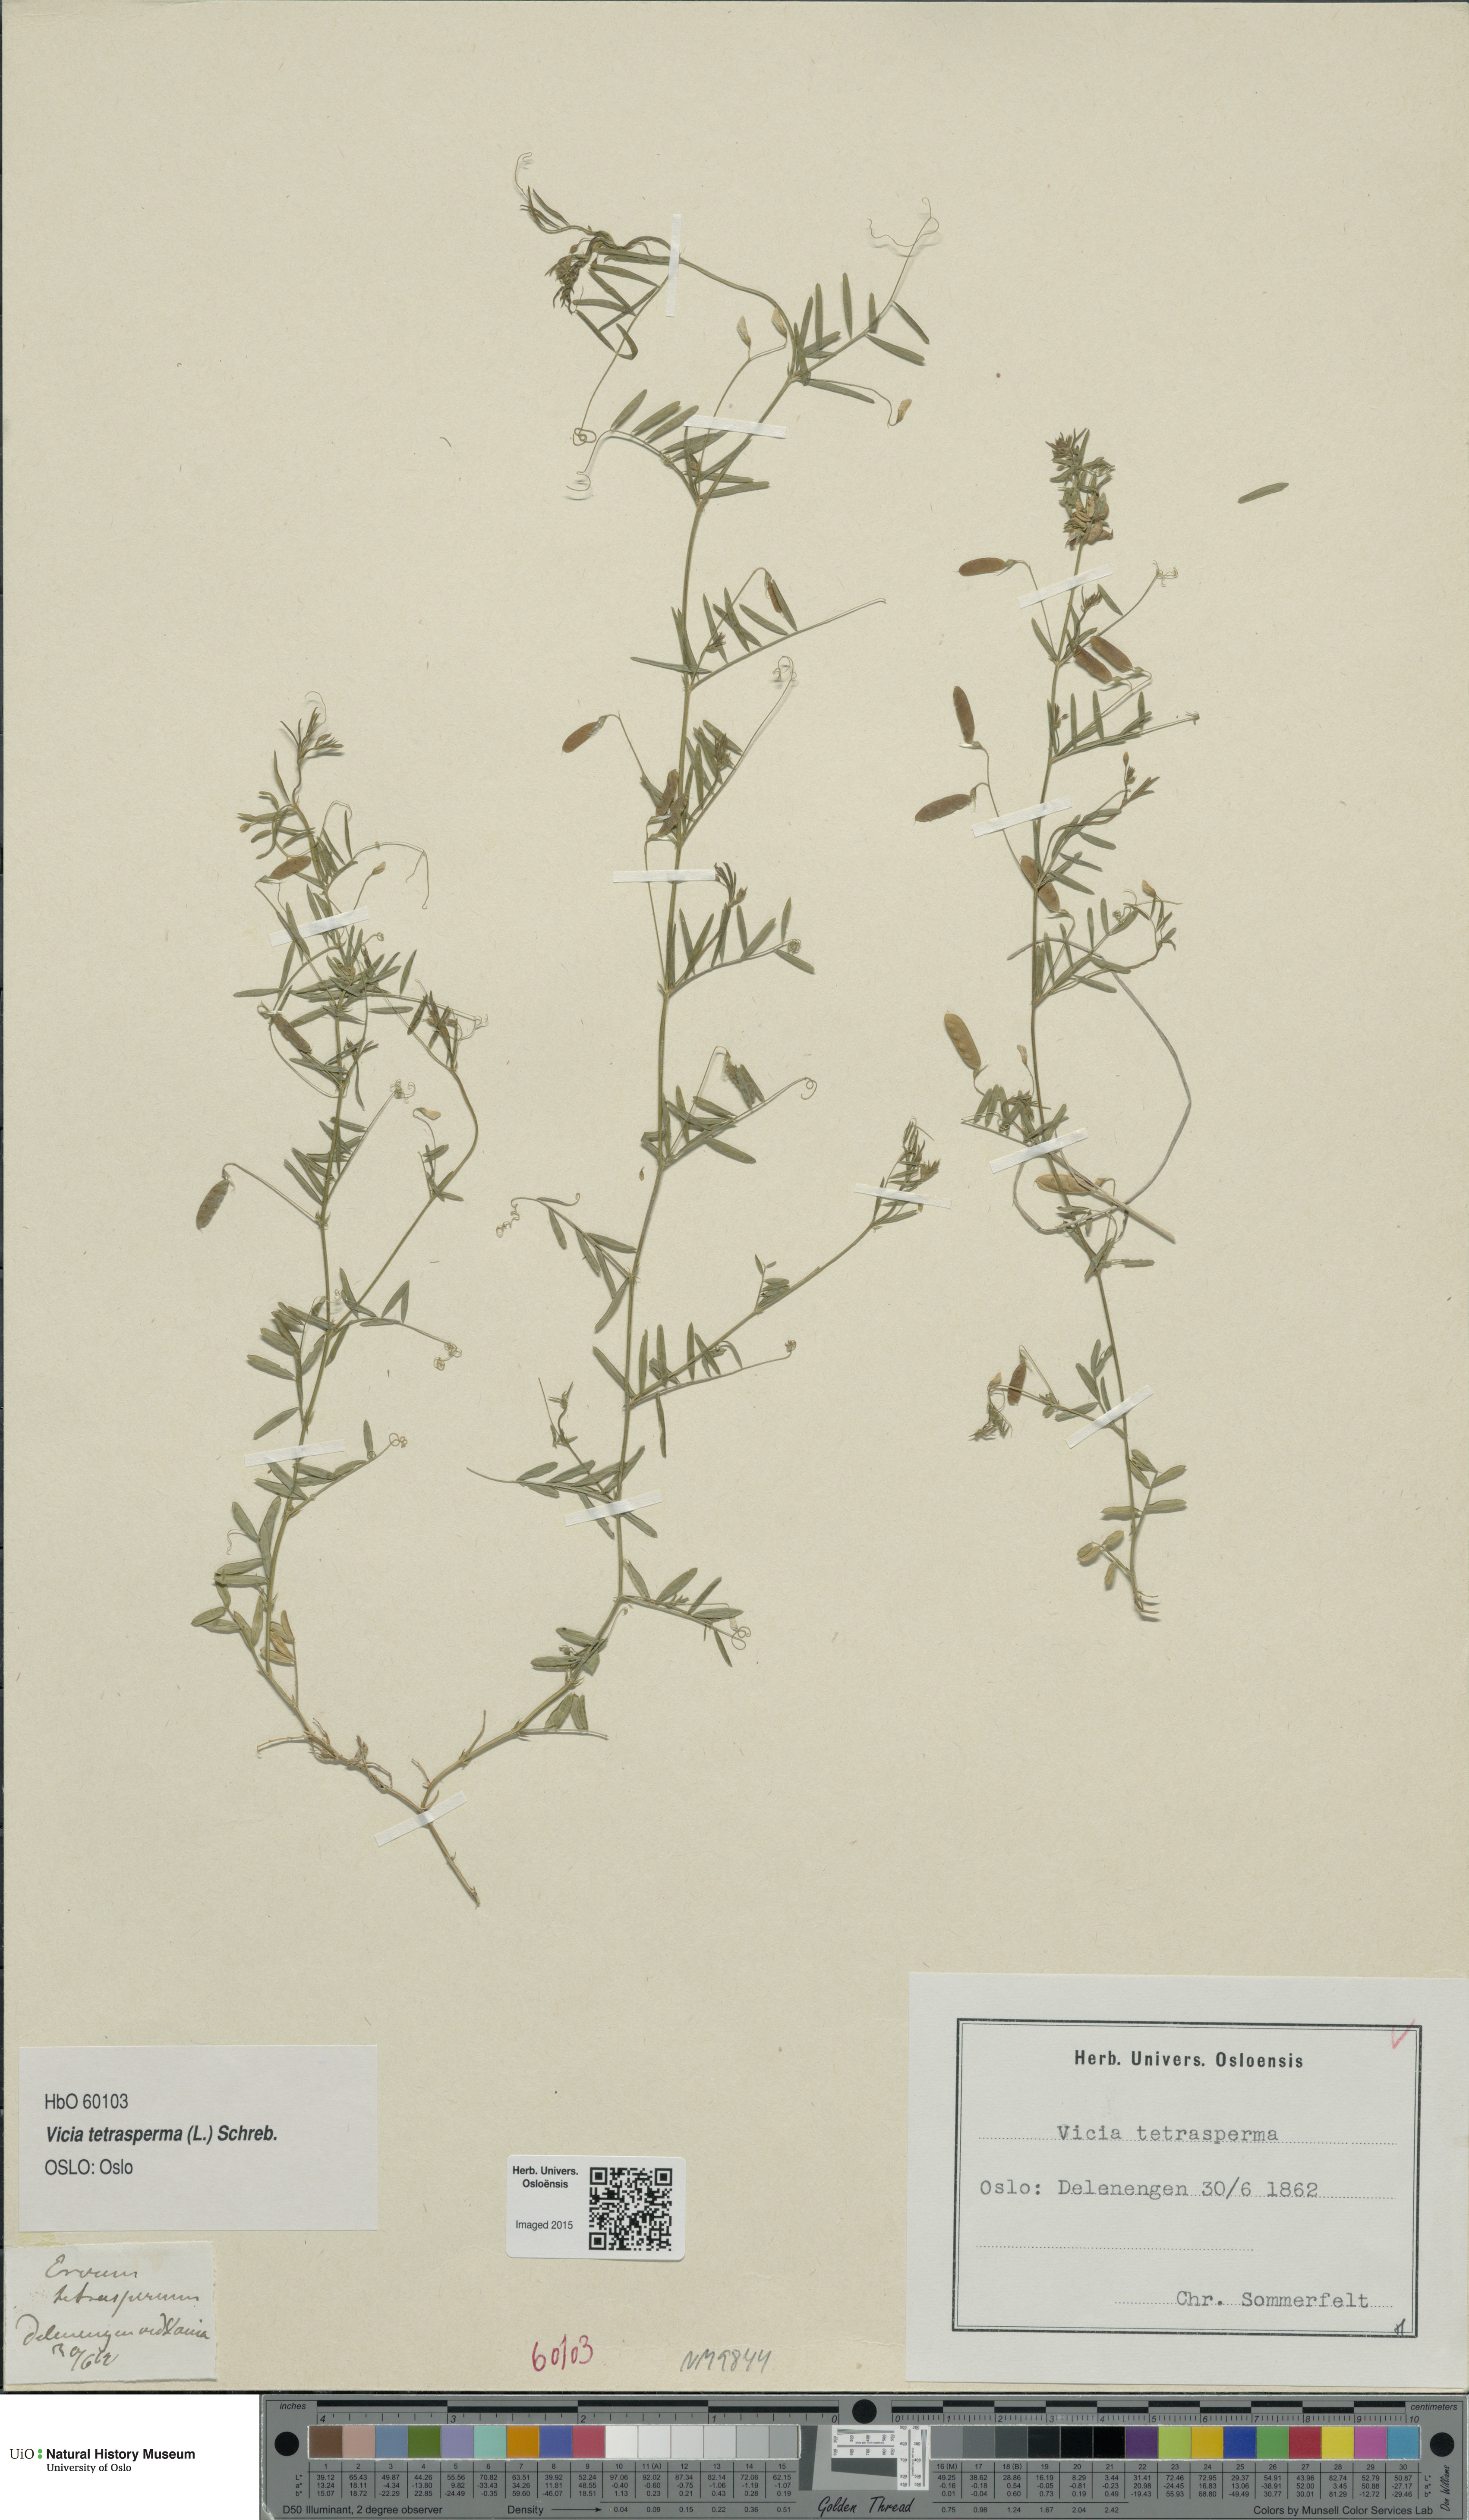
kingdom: Plantae
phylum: Tracheophyta
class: Magnoliopsida
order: Fabales
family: Fabaceae
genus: Vicia
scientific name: Vicia tetrasperma
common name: Smooth tare
